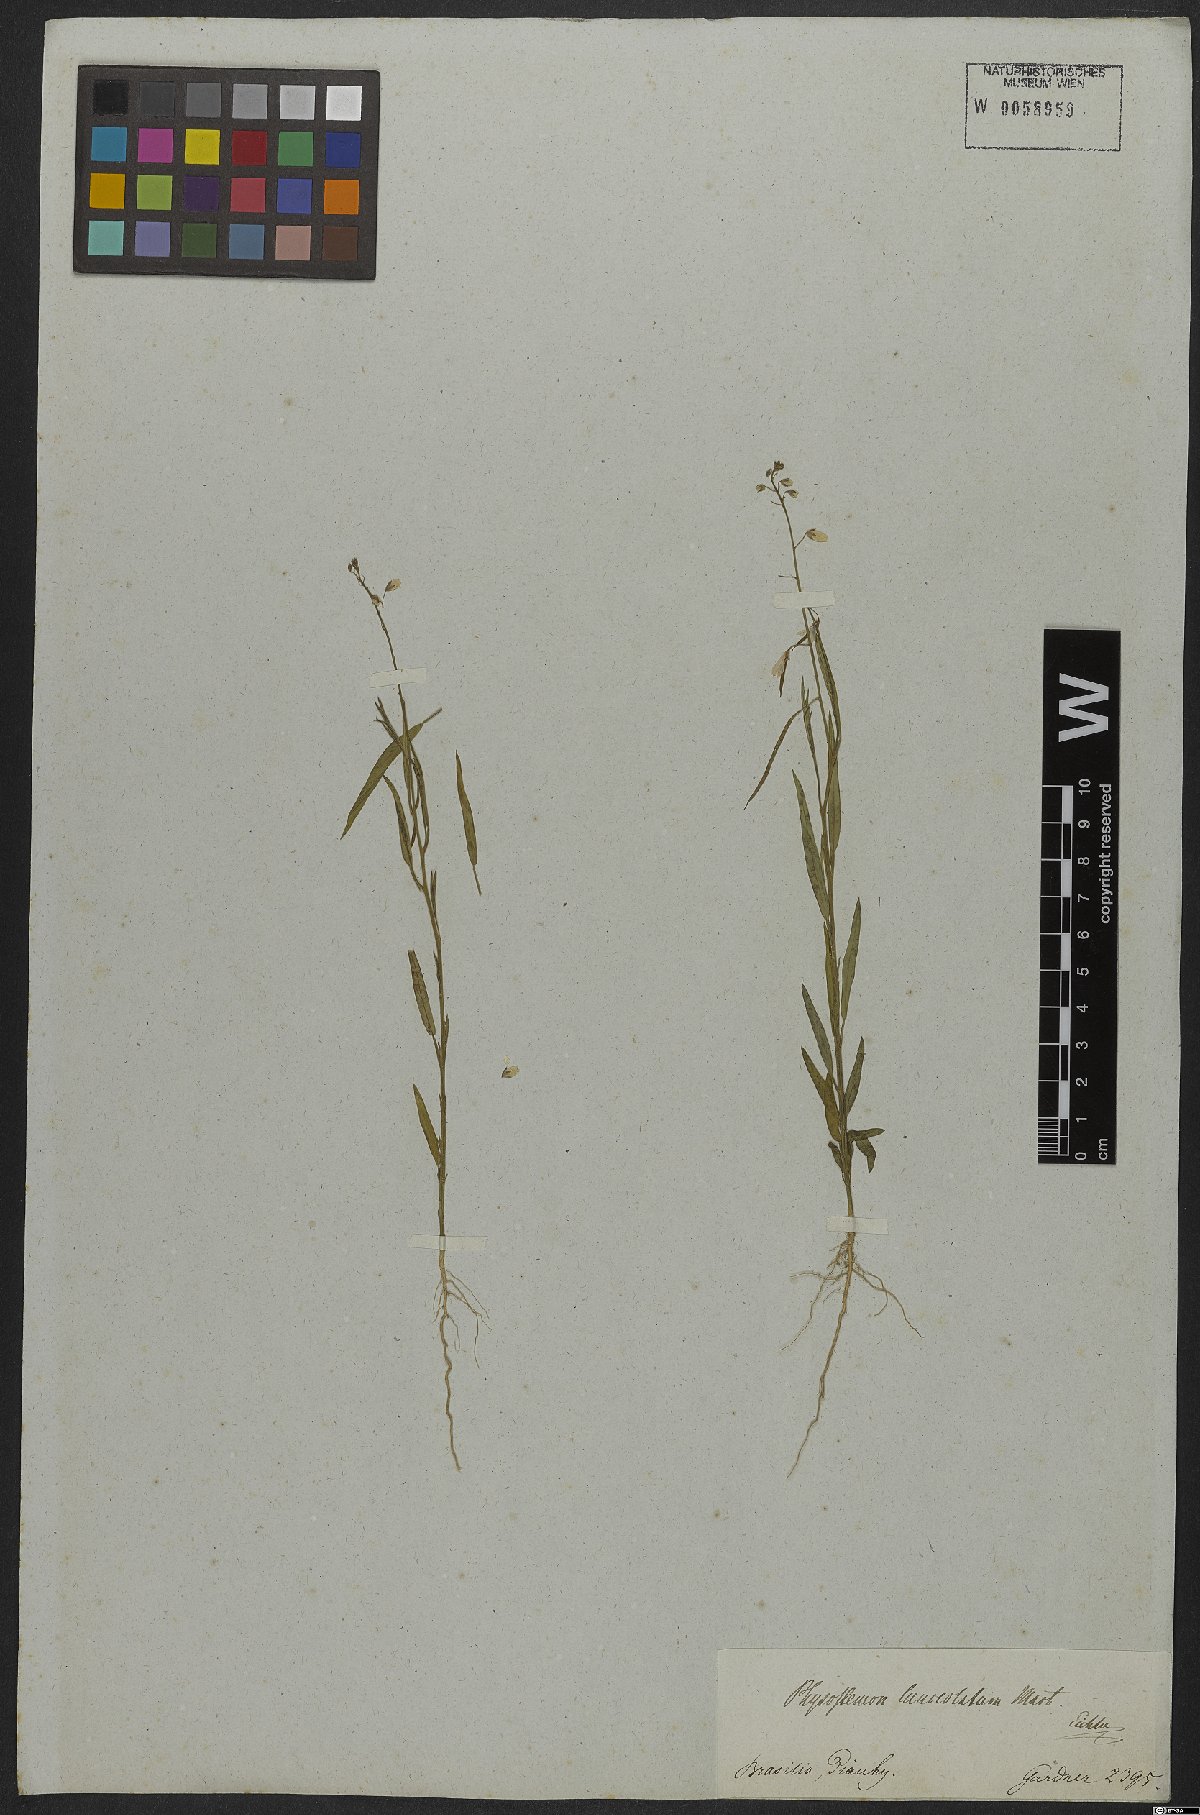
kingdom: Plantae
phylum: Tracheophyta
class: Magnoliopsida
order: Brassicales
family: Cleomaceae
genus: Physostemon
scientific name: Physostemon lanceolatus
